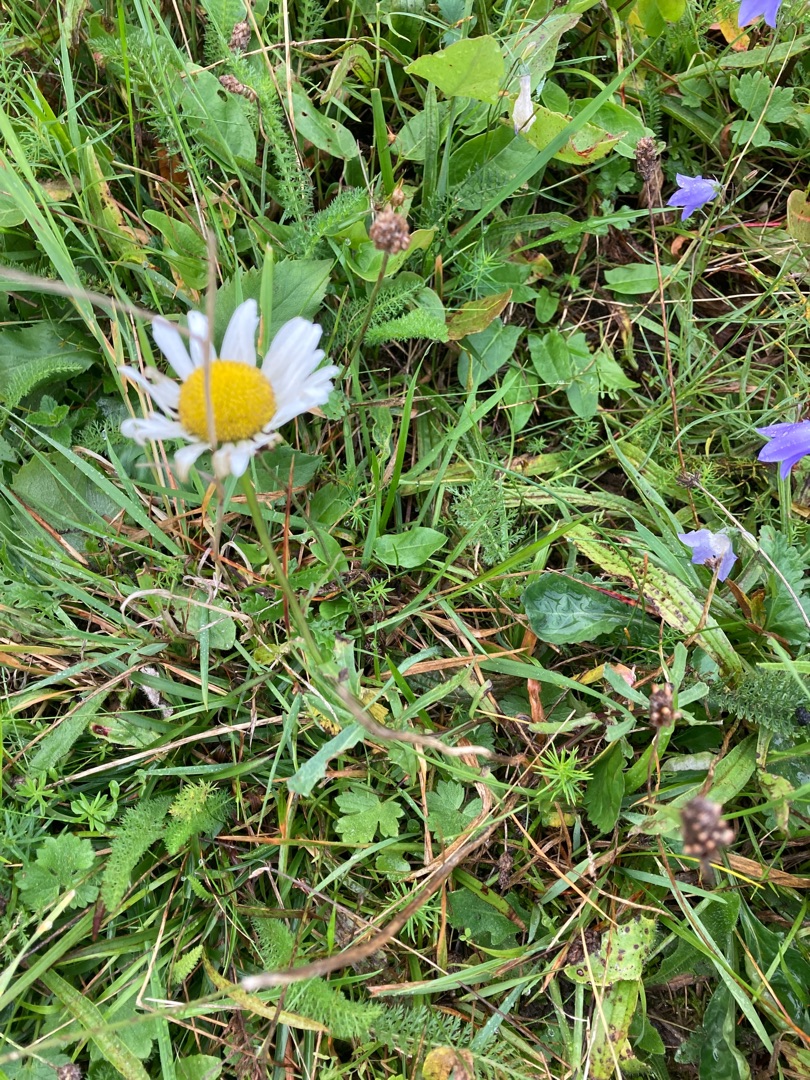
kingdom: Plantae
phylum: Tracheophyta
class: Magnoliopsida
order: Asterales
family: Asteraceae
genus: Leucanthemum
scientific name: Leucanthemum vulgare
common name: Hvid okseøje
